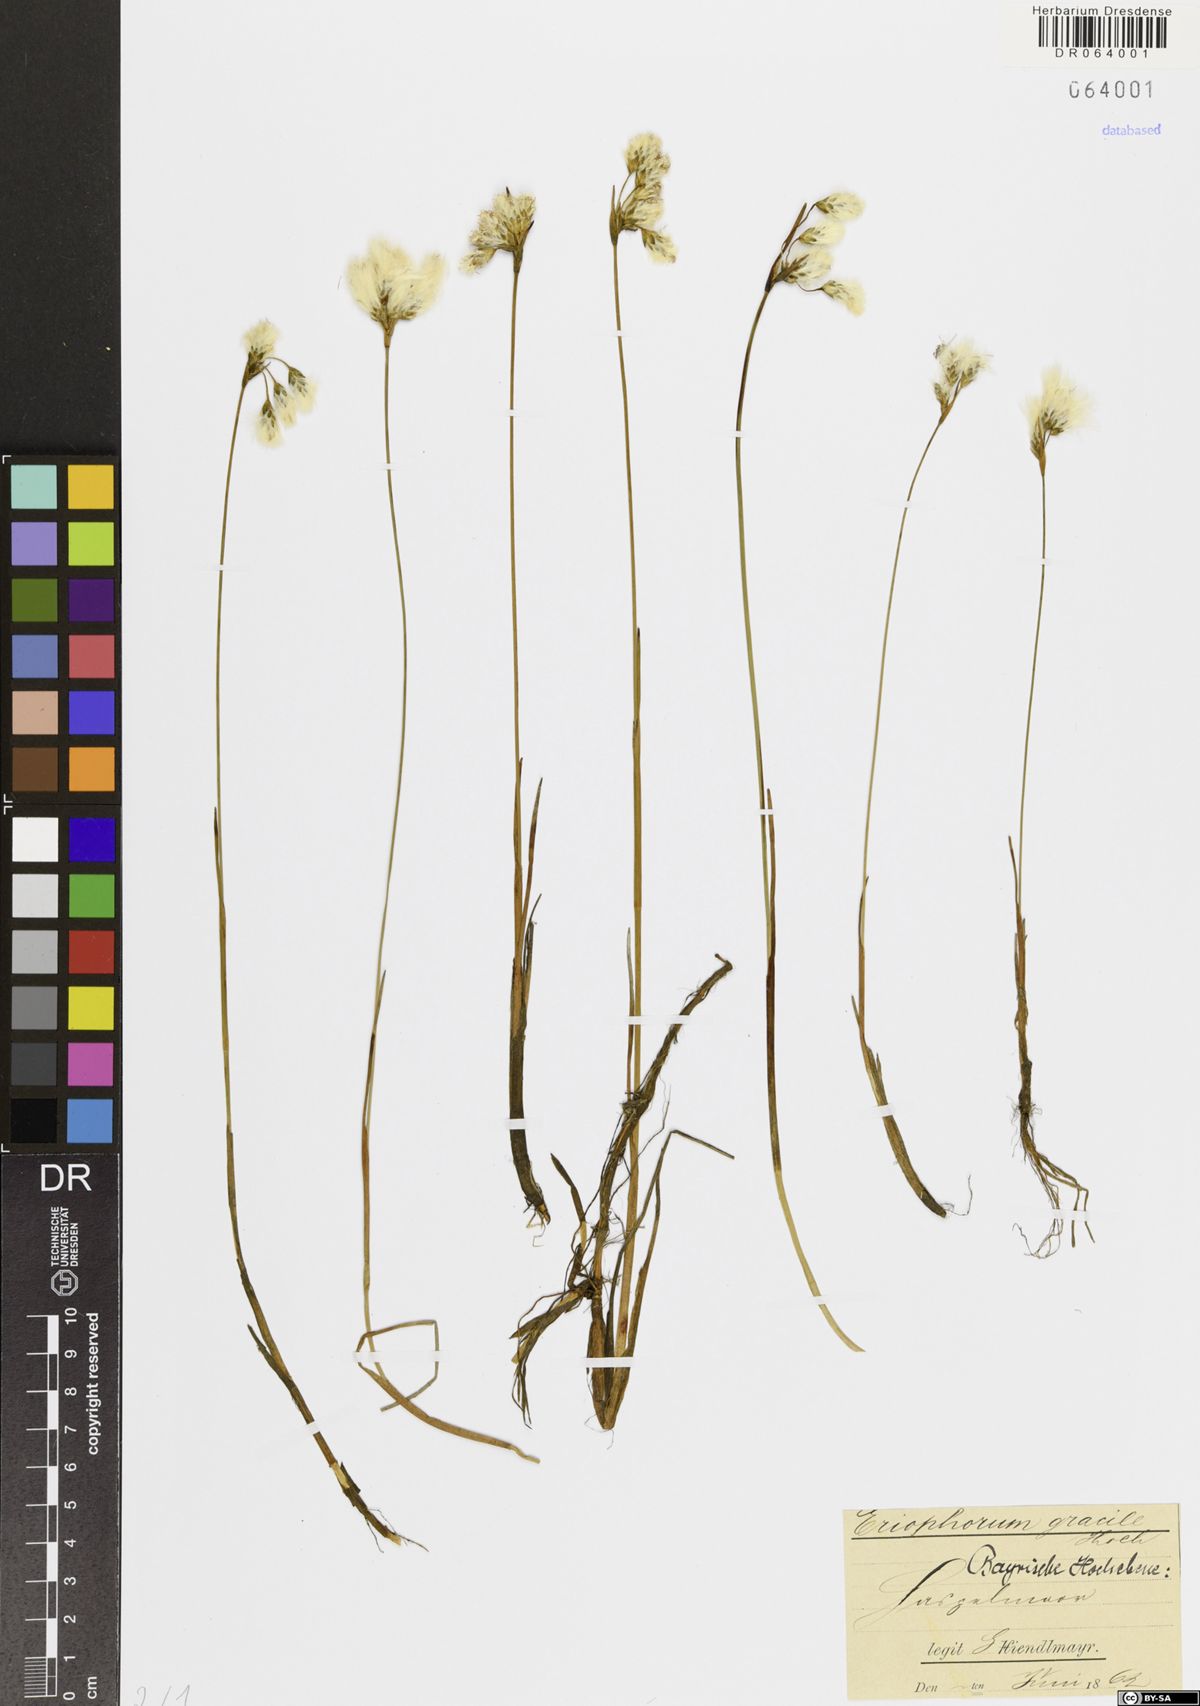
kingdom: Plantae
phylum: Tracheophyta
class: Liliopsida
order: Poales
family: Cyperaceae
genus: Eriophorum
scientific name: Eriophorum gracile
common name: Slender cottongrass
